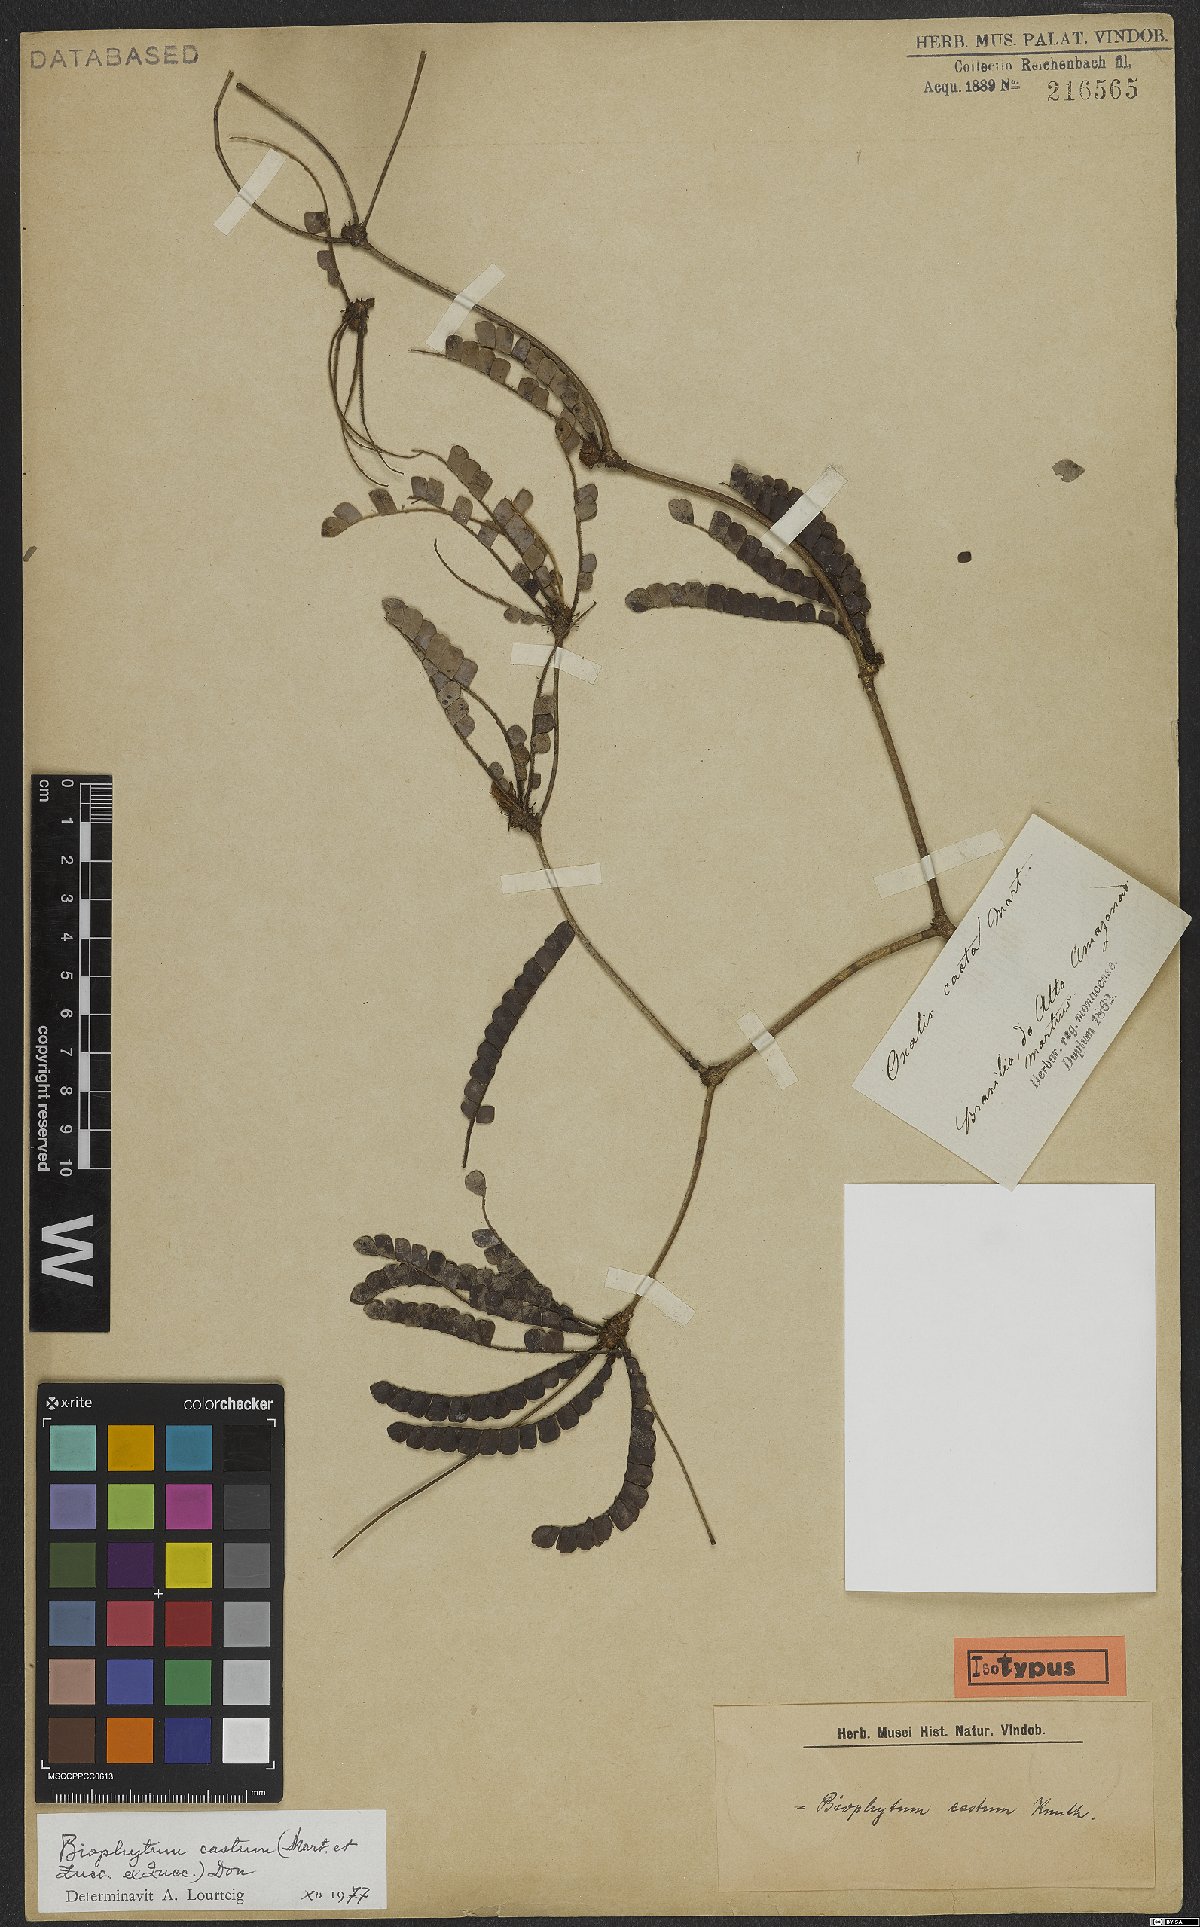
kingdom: Plantae
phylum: Tracheophyta
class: Magnoliopsida
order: Oxalidales
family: Oxalidaceae
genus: Biophytum
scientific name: Biophytum castum
